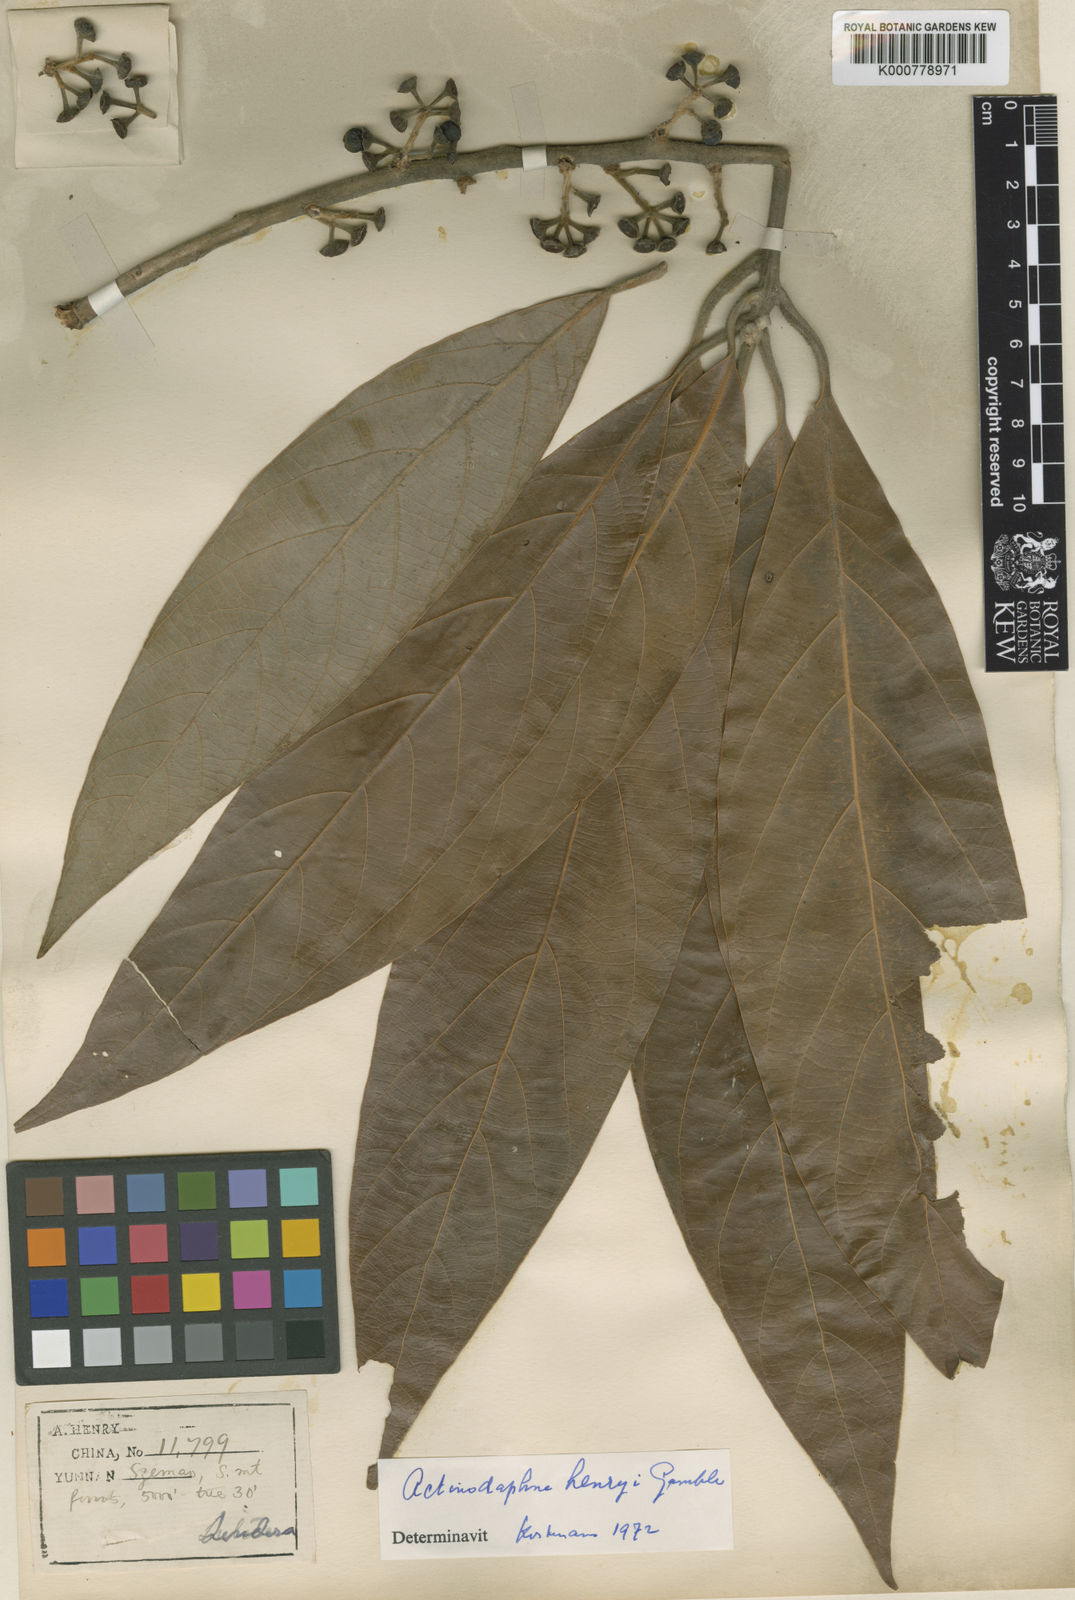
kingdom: Plantae
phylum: Tracheophyta
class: Magnoliopsida
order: Laurales
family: Lauraceae
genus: Actinodaphne
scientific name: Actinodaphne henryi
